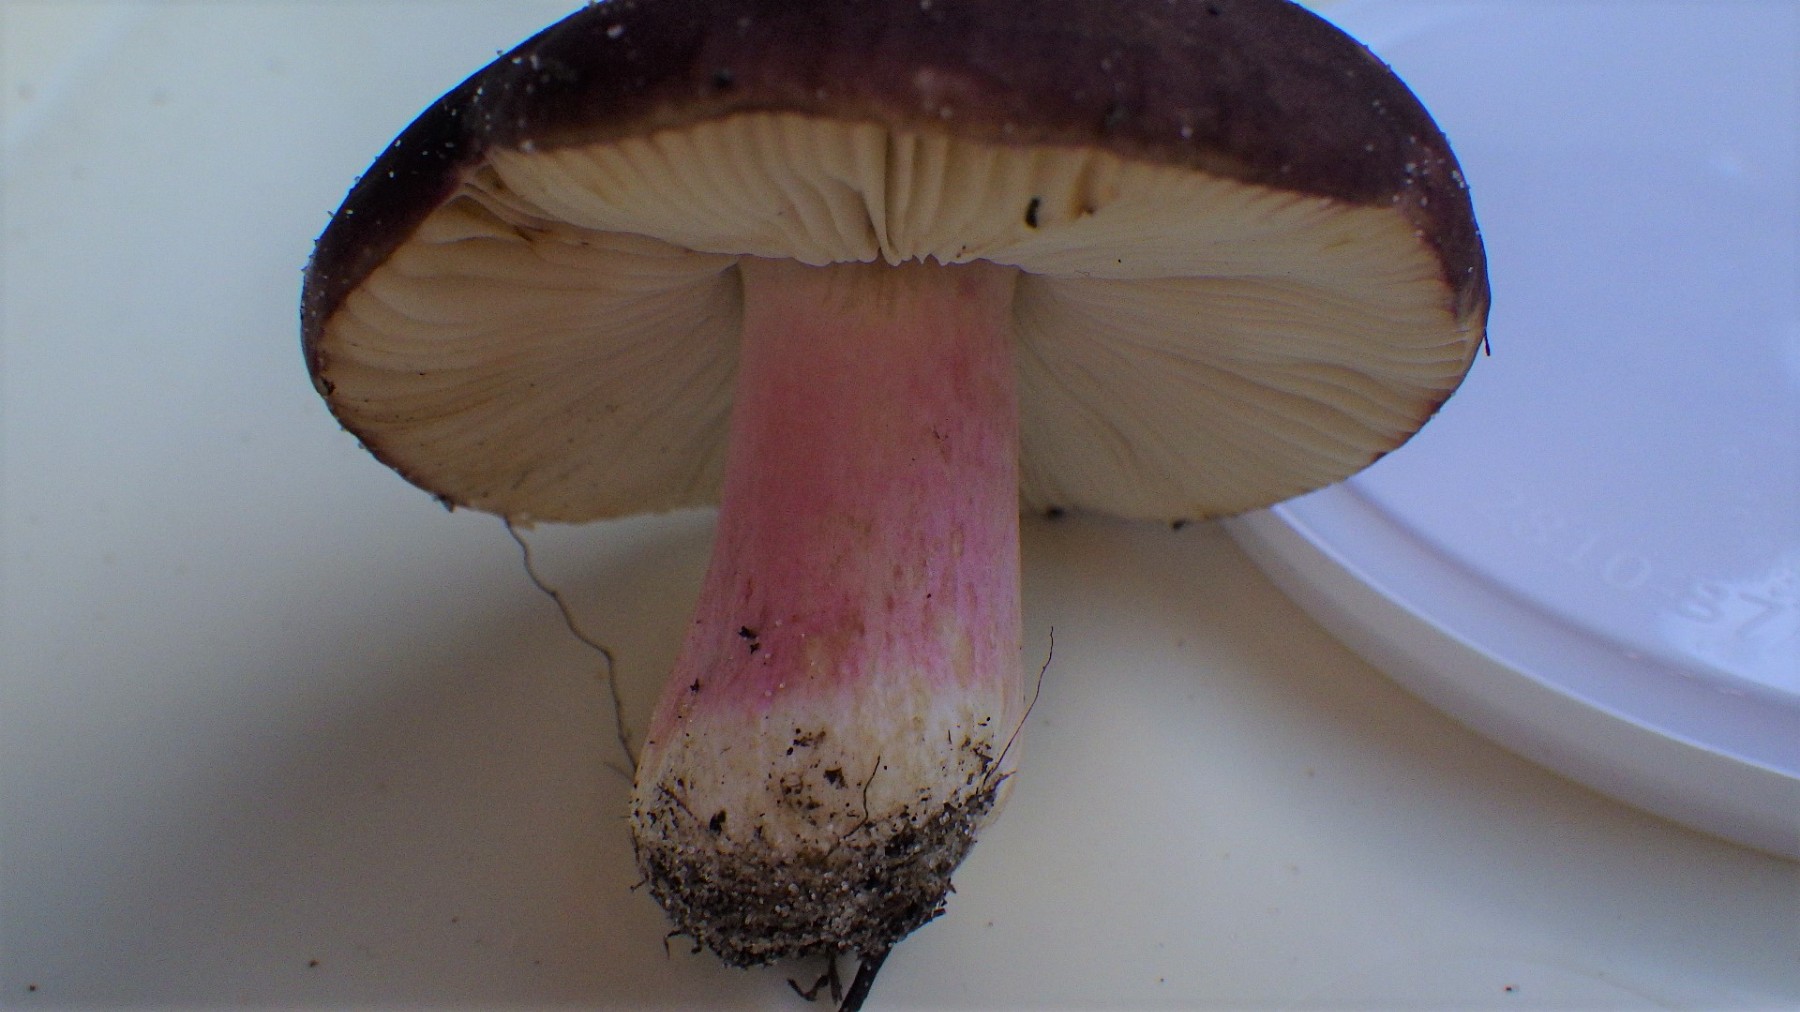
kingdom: Fungi
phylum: Basidiomycota
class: Agaricomycetes
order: Russulales
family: Russulaceae
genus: Russula
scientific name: Russula
